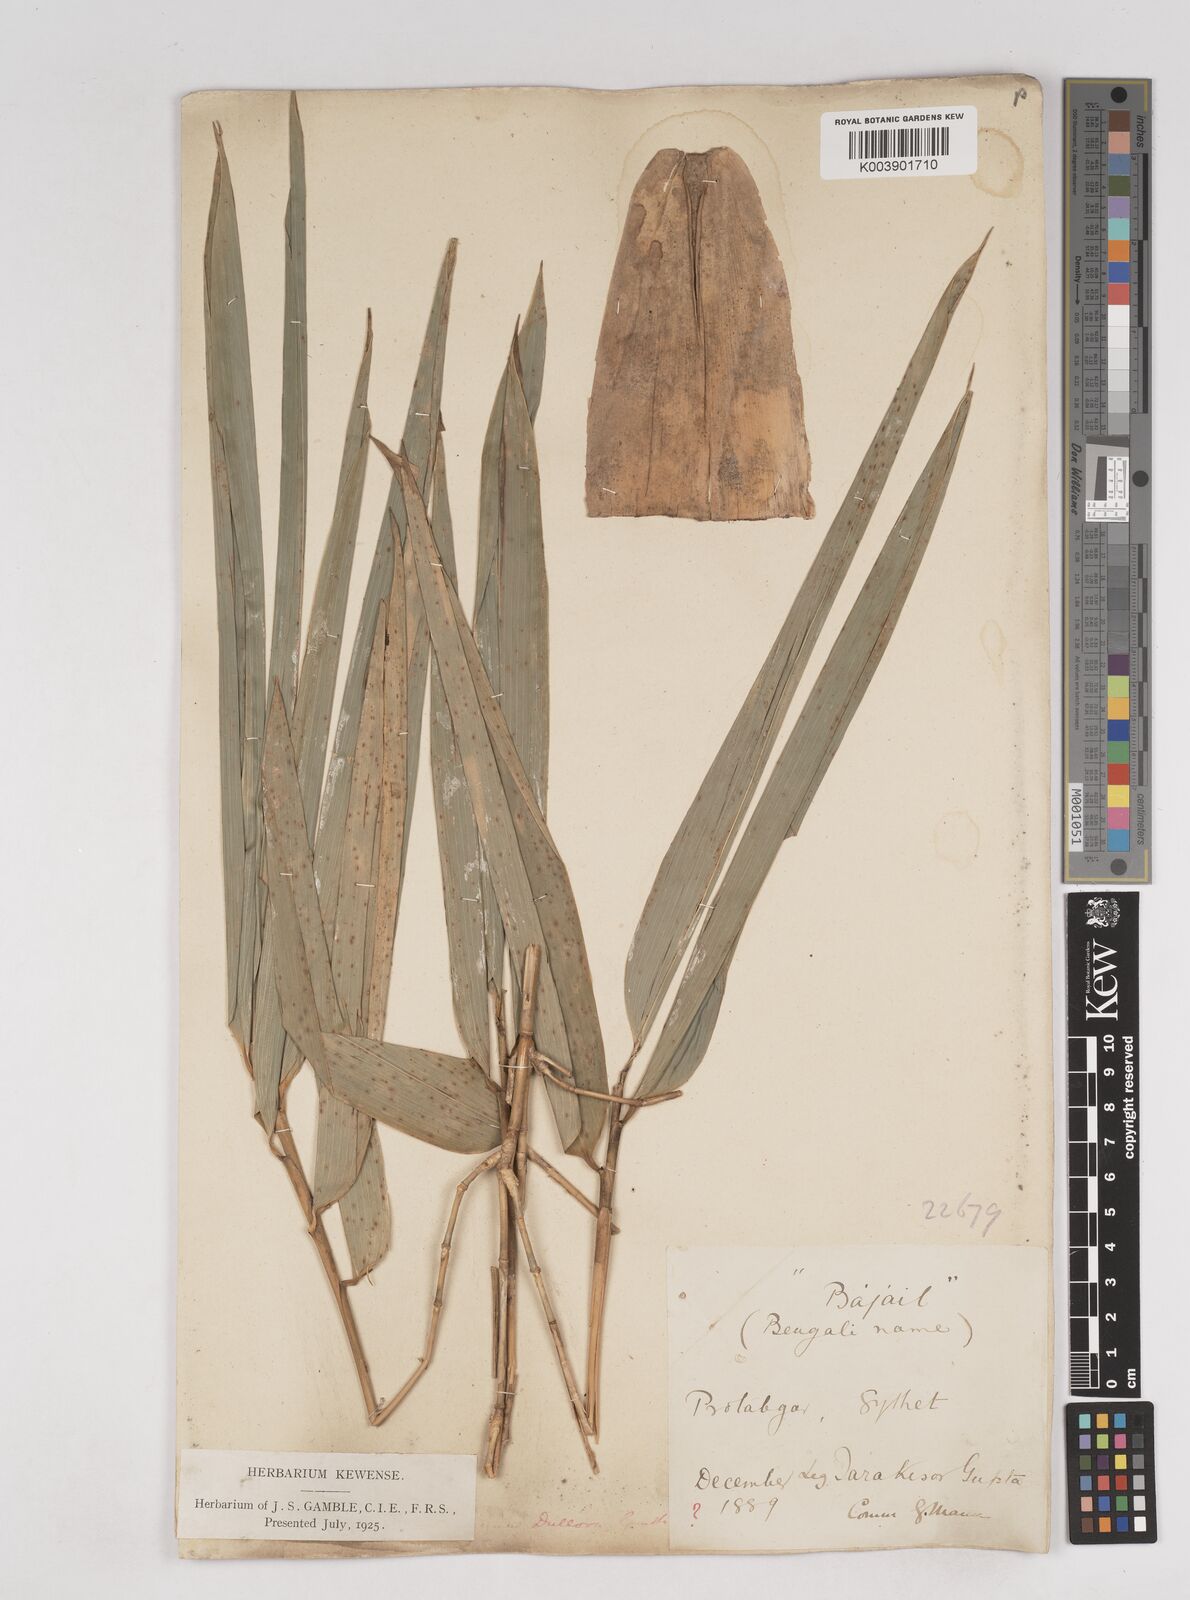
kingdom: Plantae
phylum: Tracheophyta
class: Liliopsida
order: Poales
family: Poaceae
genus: Schizostachyum
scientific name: Schizostachyum dullooa
